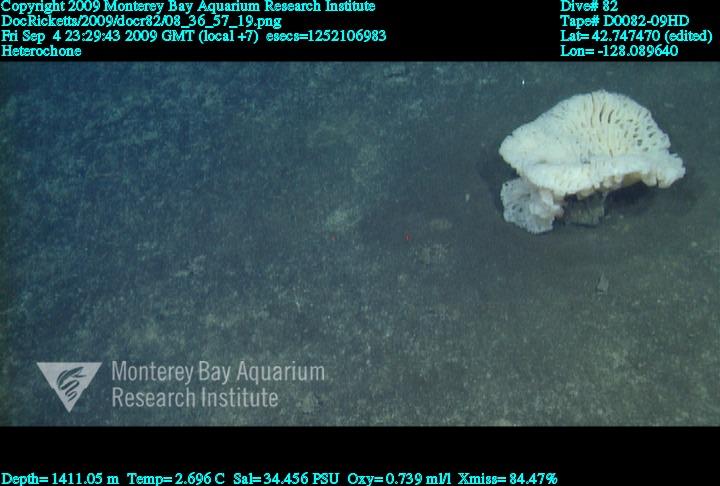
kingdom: Animalia
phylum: Porifera
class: Hexactinellida
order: Sceptrulophora
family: Aphrocallistidae
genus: Heterochone
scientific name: Heterochone
